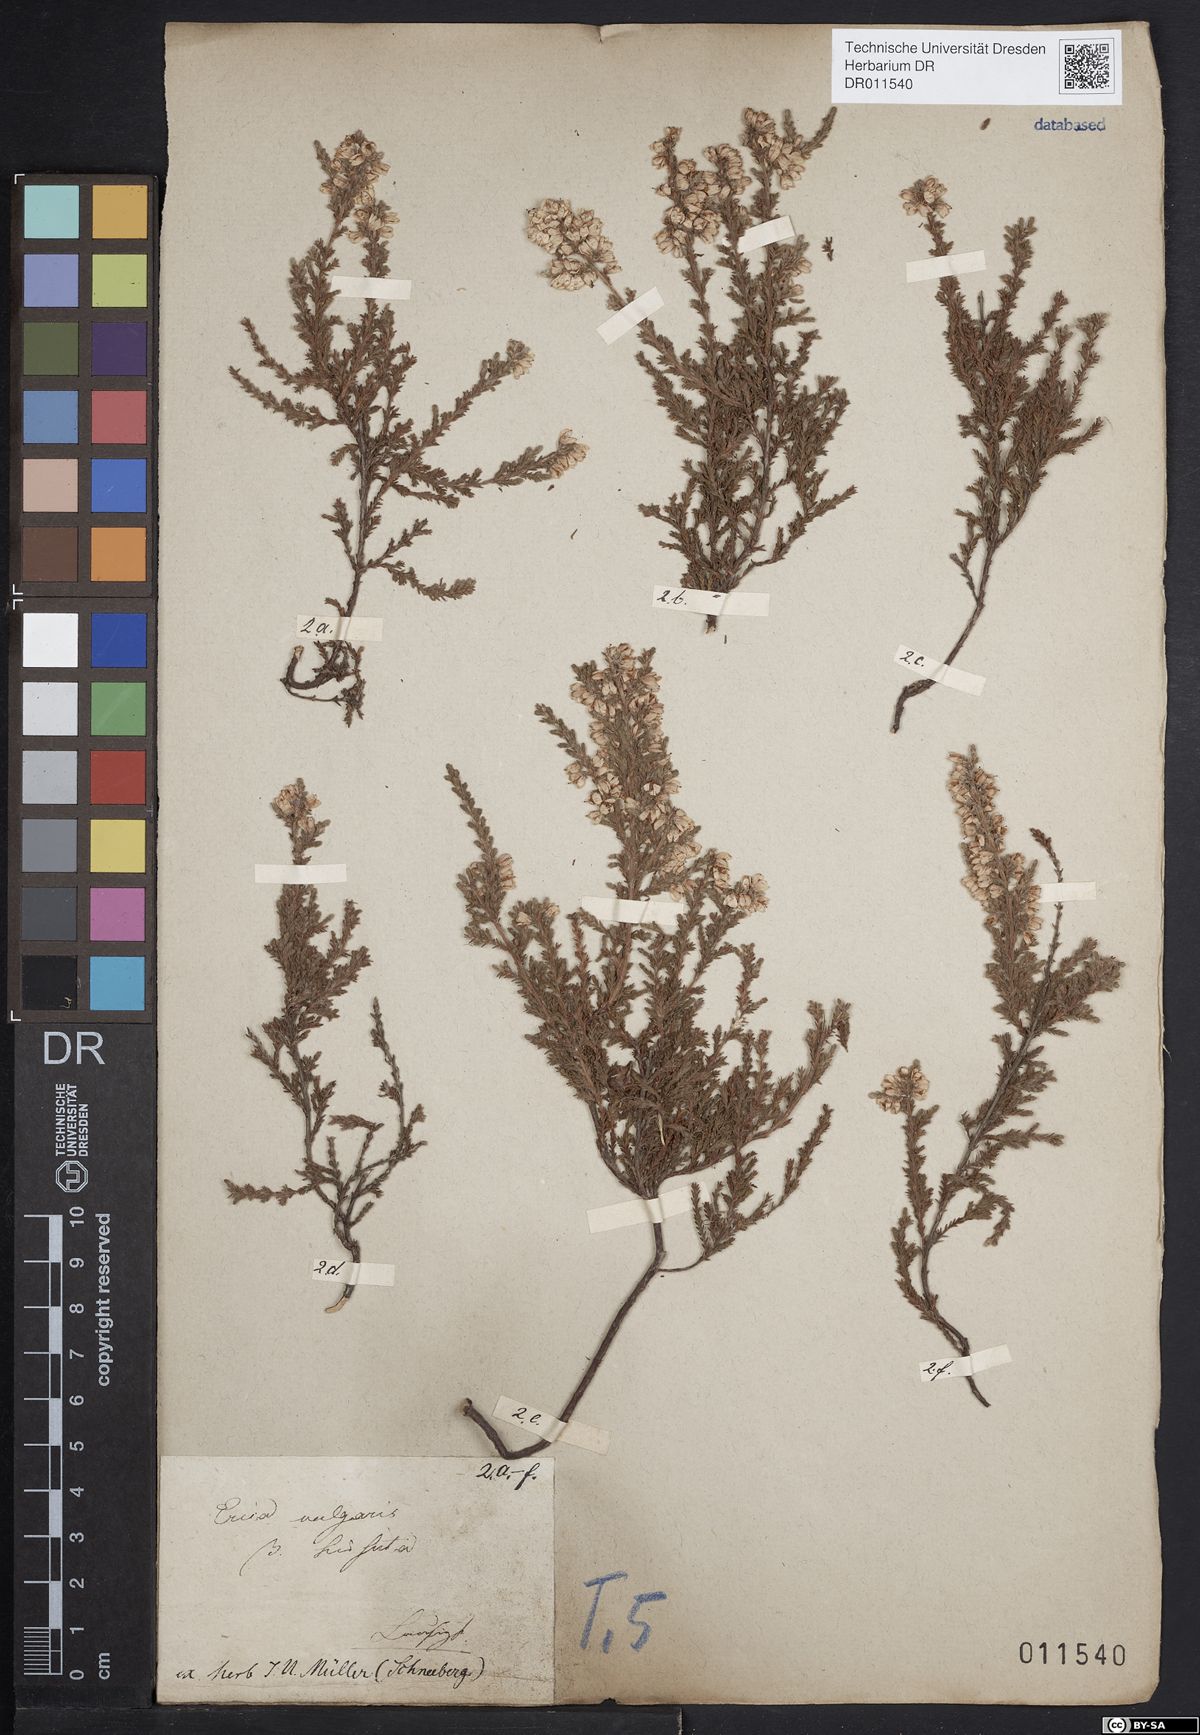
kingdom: Plantae
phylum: Tracheophyta
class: Magnoliopsida
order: Ericales
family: Ericaceae
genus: Calluna
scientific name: Calluna vulgaris
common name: Heather
